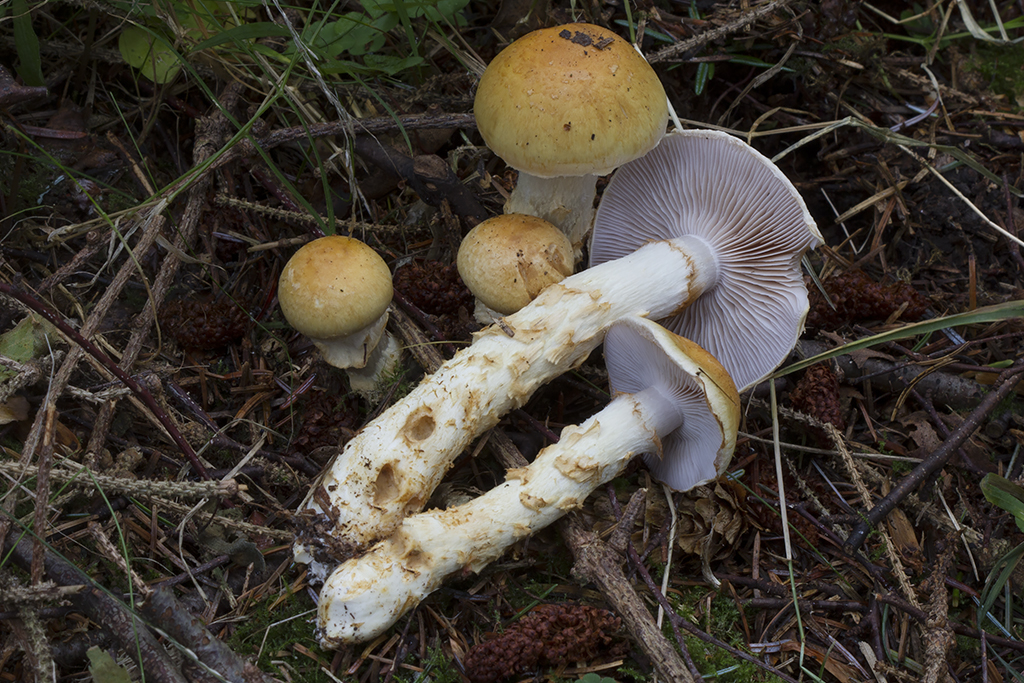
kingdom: Fungi
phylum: Basidiomycota
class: Agaricomycetes
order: Agaricales
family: Cortinariaceae
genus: Phlegmacium
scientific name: Phlegmacium triumphans
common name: gulbæltet slørhat
